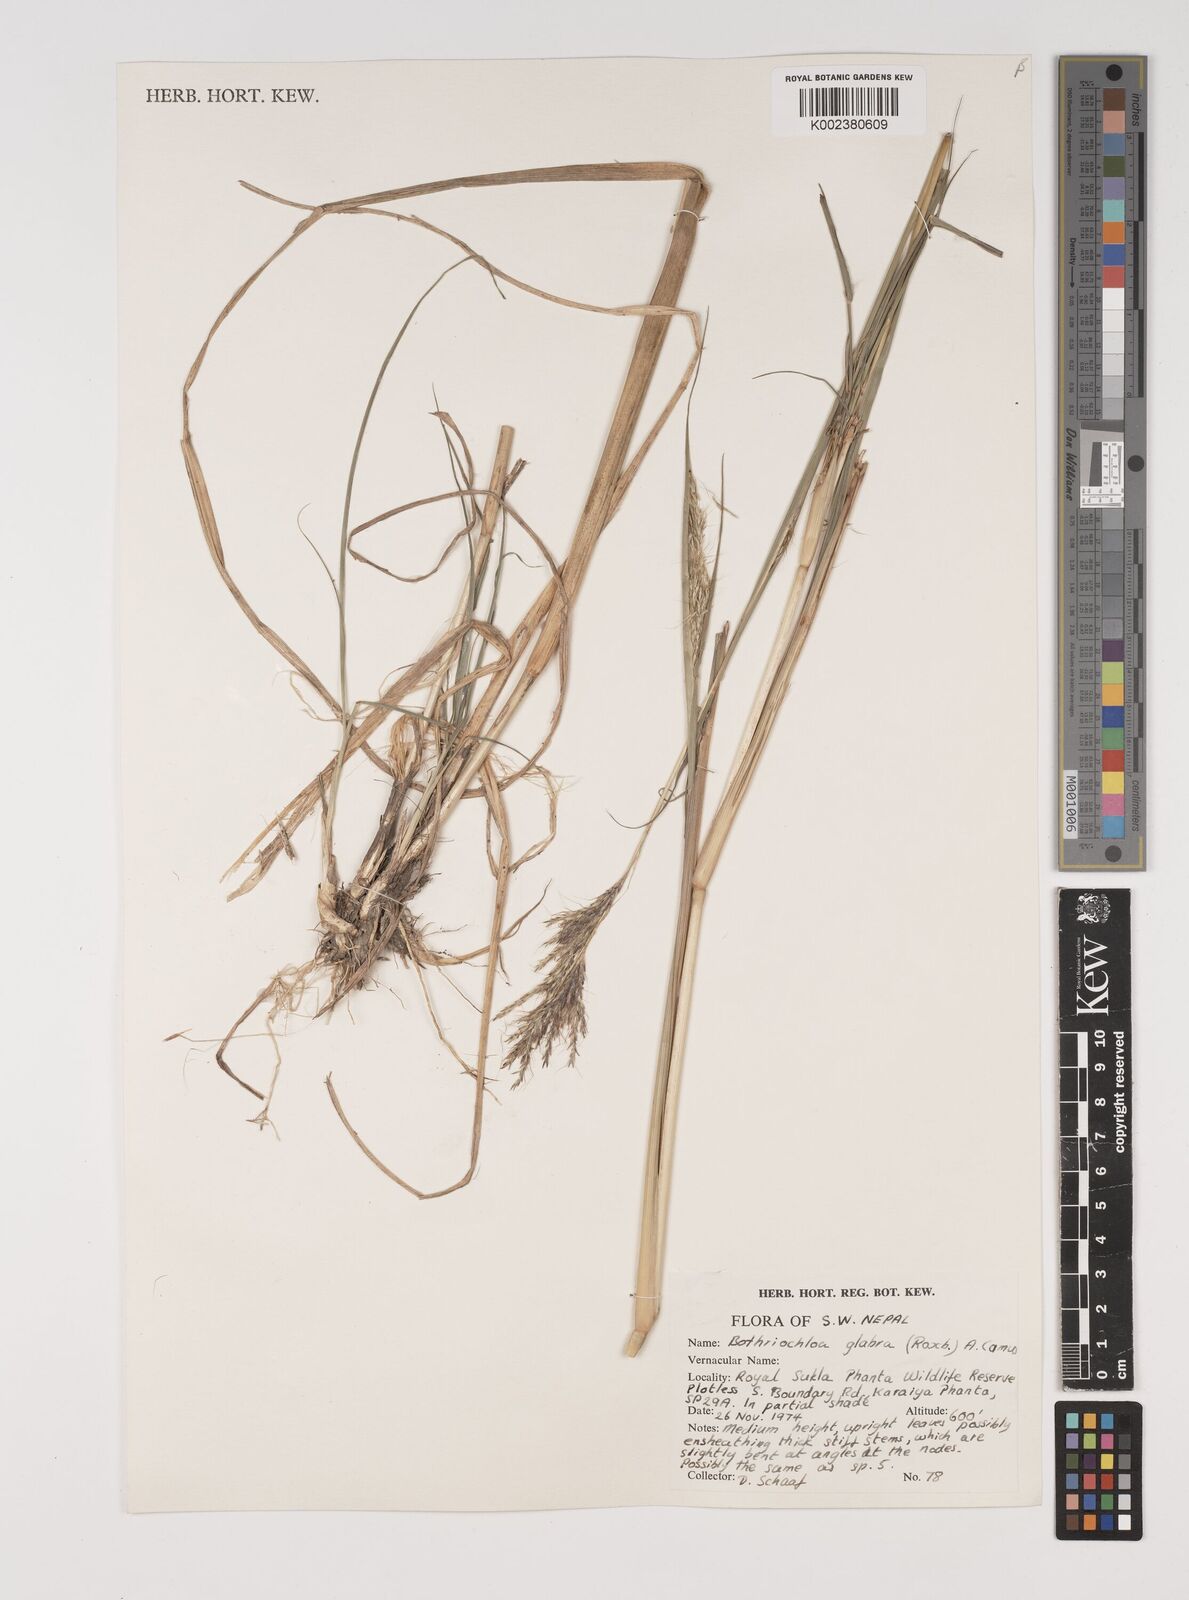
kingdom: Plantae
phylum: Tracheophyta
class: Liliopsida
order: Poales
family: Poaceae
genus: Bothriochloa
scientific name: Bothriochloa bladhii
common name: Caucasian bluestem
